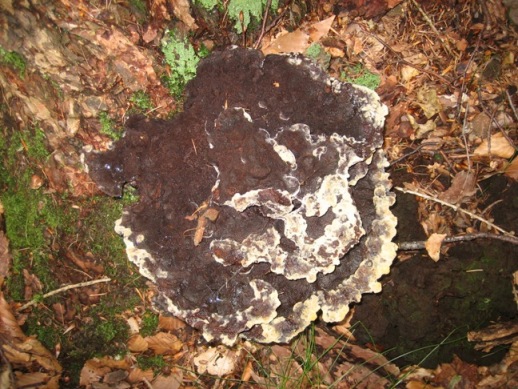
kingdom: Fungi
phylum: Basidiomycota
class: Agaricomycetes
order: Polyporales
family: Laetiporaceae
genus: Phaeolus
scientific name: Phaeolus schweinitzii
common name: brunporesvamp
